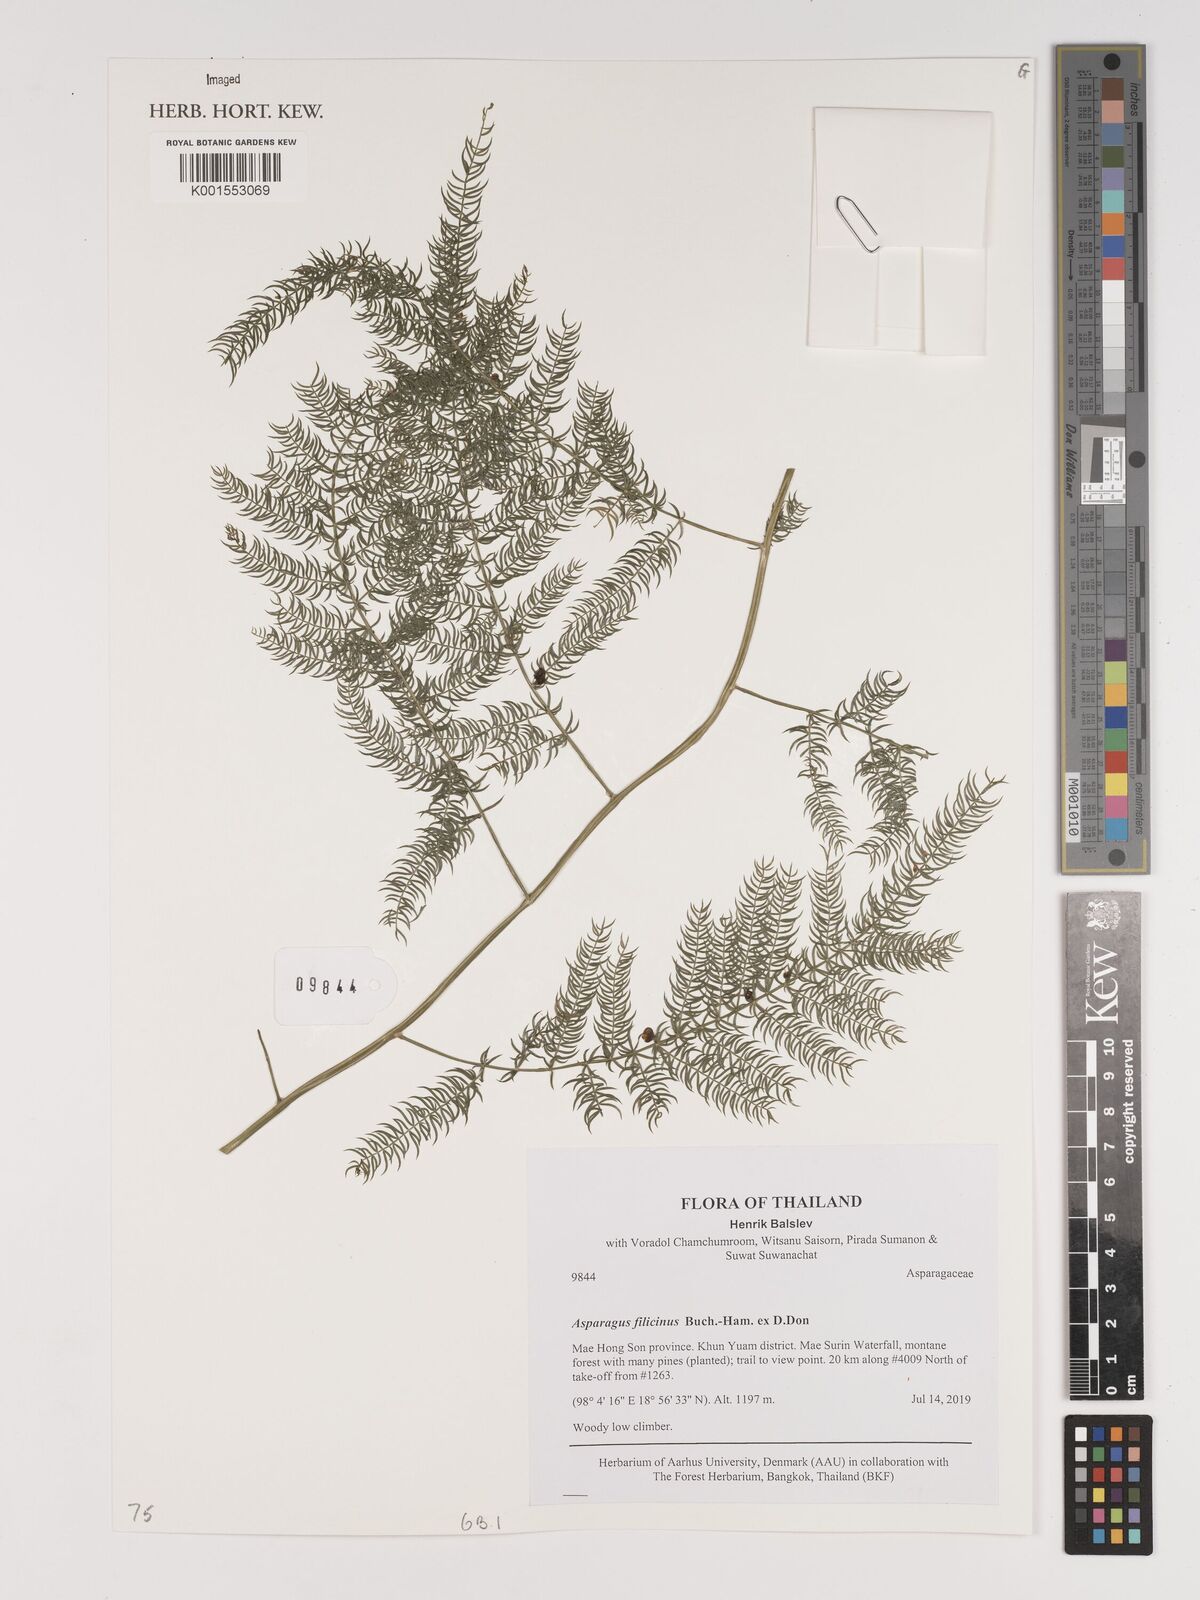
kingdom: Plantae
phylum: Tracheophyta
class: Liliopsida
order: Asparagales
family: Asparagaceae
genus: Asparagus
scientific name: Asparagus filicinus
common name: Fern asparagus
